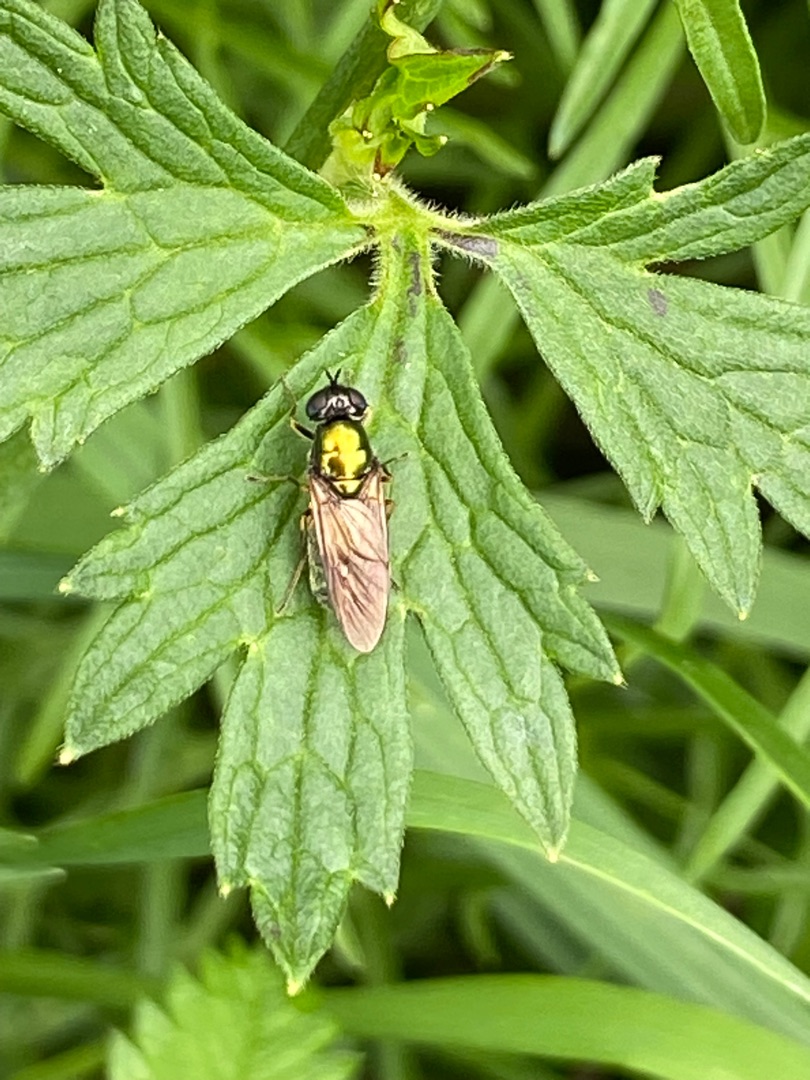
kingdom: Animalia
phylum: Arthropoda
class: Insecta
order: Diptera
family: Stratiomyidae
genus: Chloromyia
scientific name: Chloromyia formosa
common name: Grøn våbenflue
